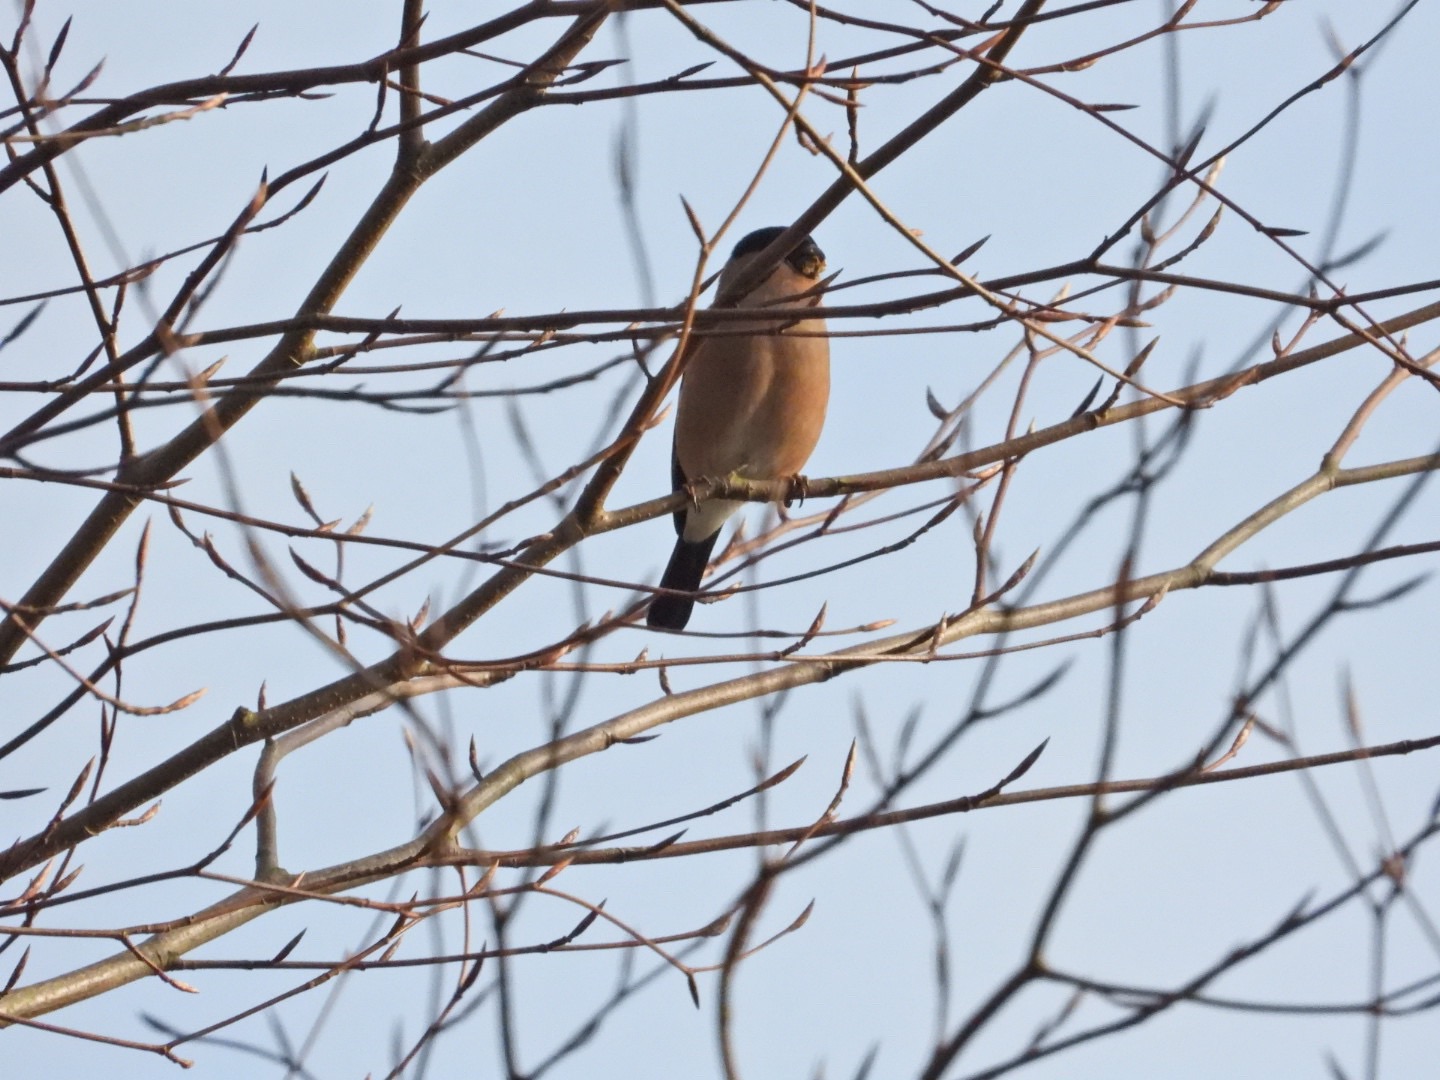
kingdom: Animalia
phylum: Chordata
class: Aves
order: Passeriformes
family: Fringillidae
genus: Pyrrhula
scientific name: Pyrrhula pyrrhula
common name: Dompap
